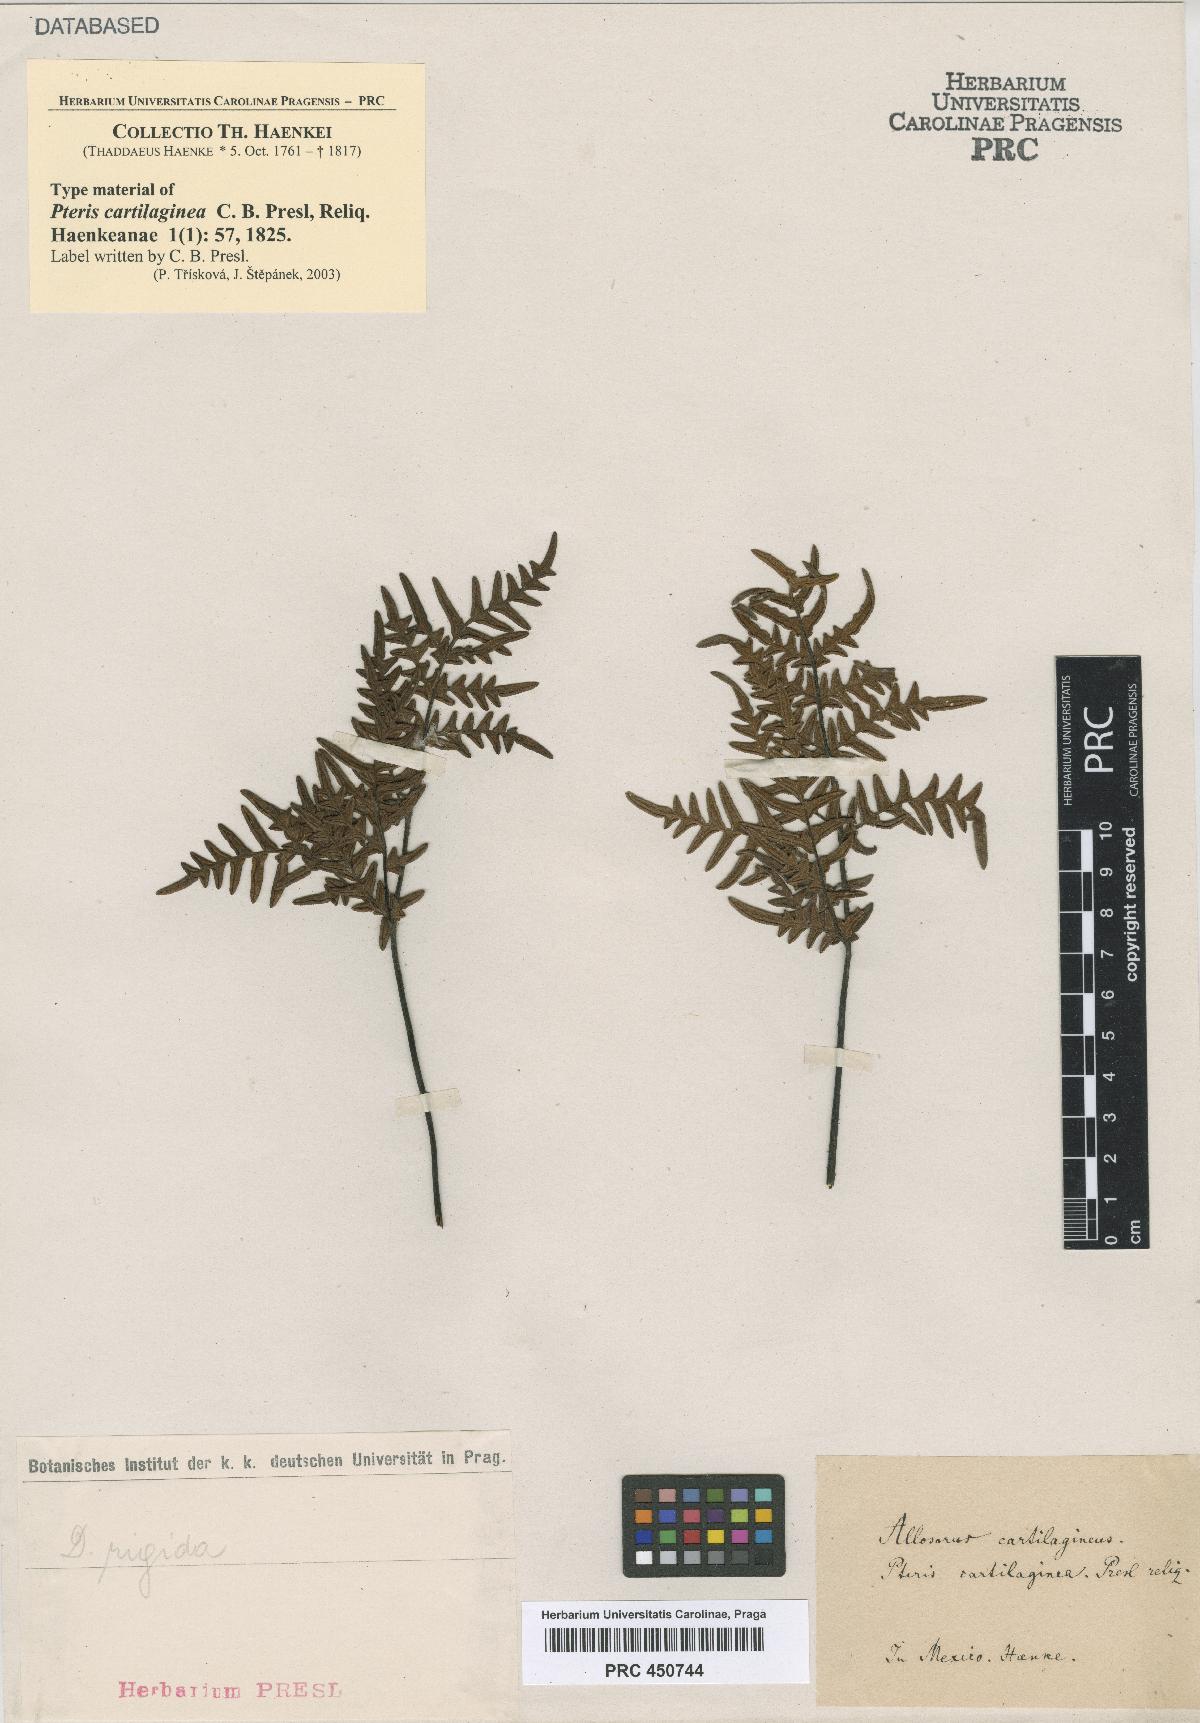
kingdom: Plantae
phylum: Tracheophyta
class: Polypodiopsida
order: Polypodiales
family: Pteridaceae
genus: Cheiloplecton
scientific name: Cheiloplecton rigidum
